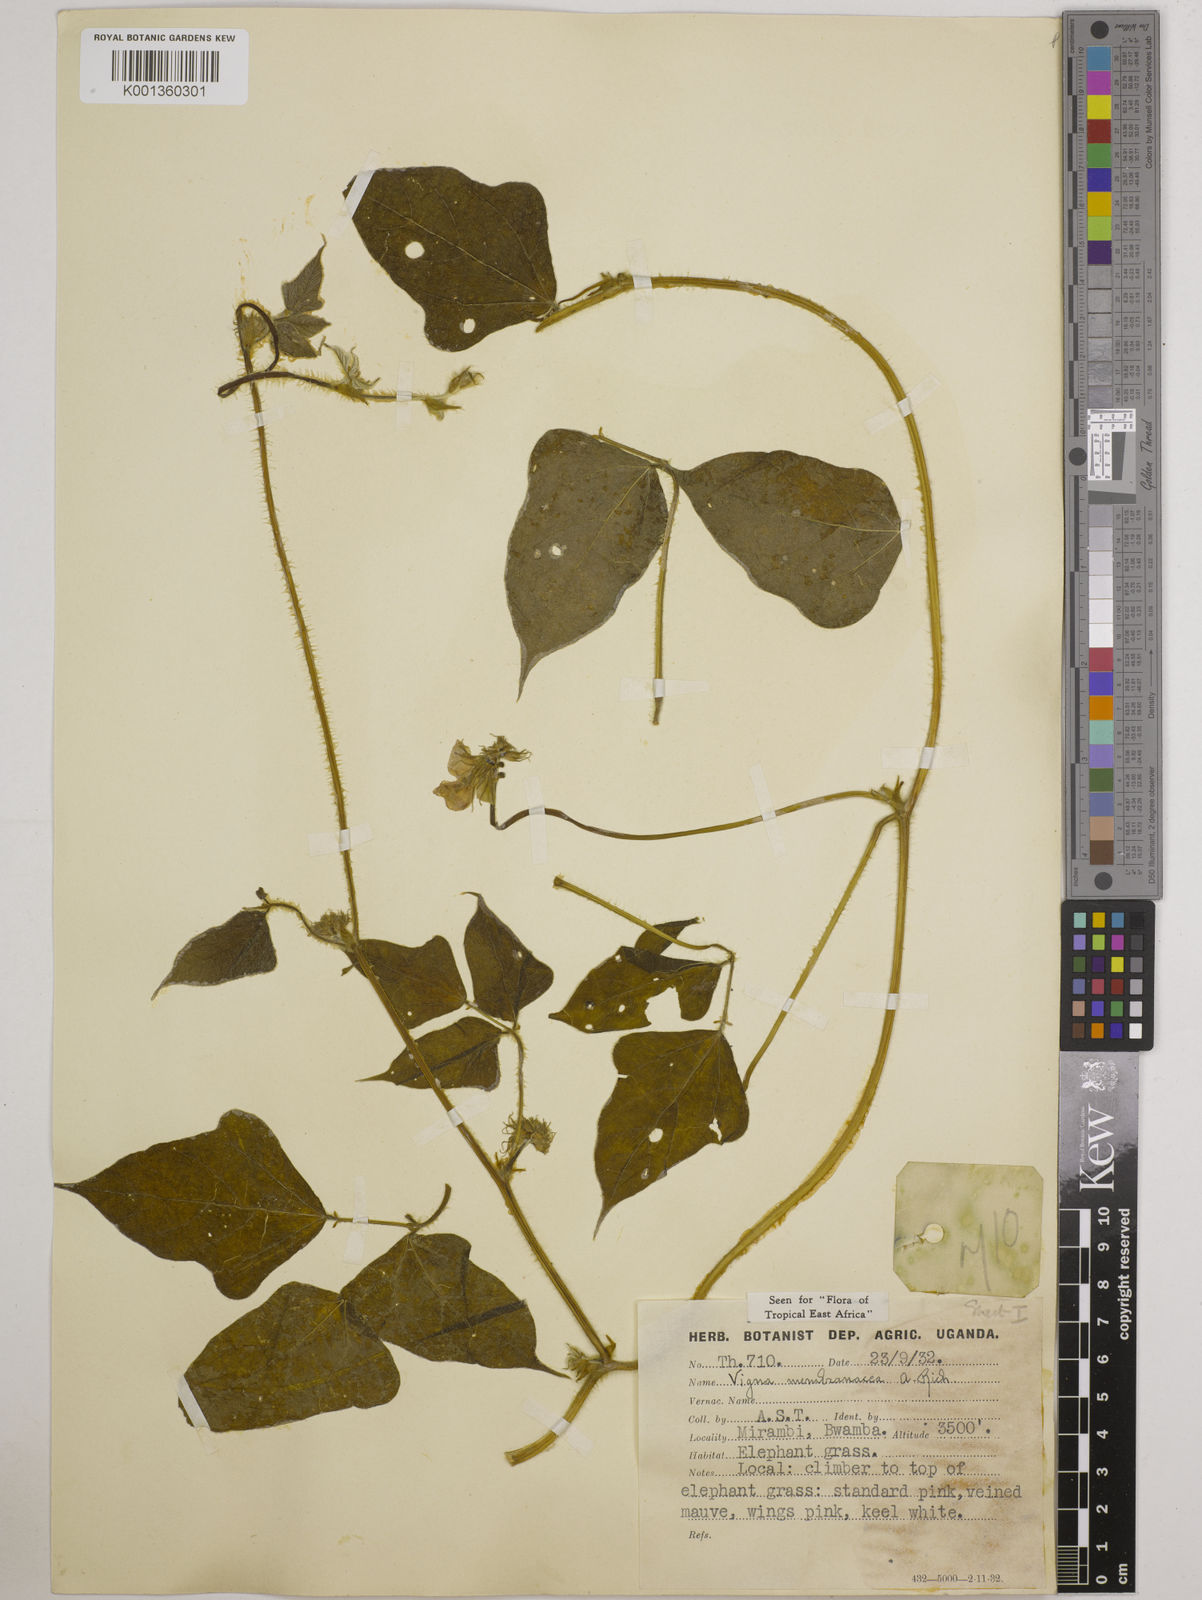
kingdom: Plantae
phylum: Tracheophyta
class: Magnoliopsida
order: Fabales
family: Fabaceae
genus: Vigna
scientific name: Vigna membranacea
